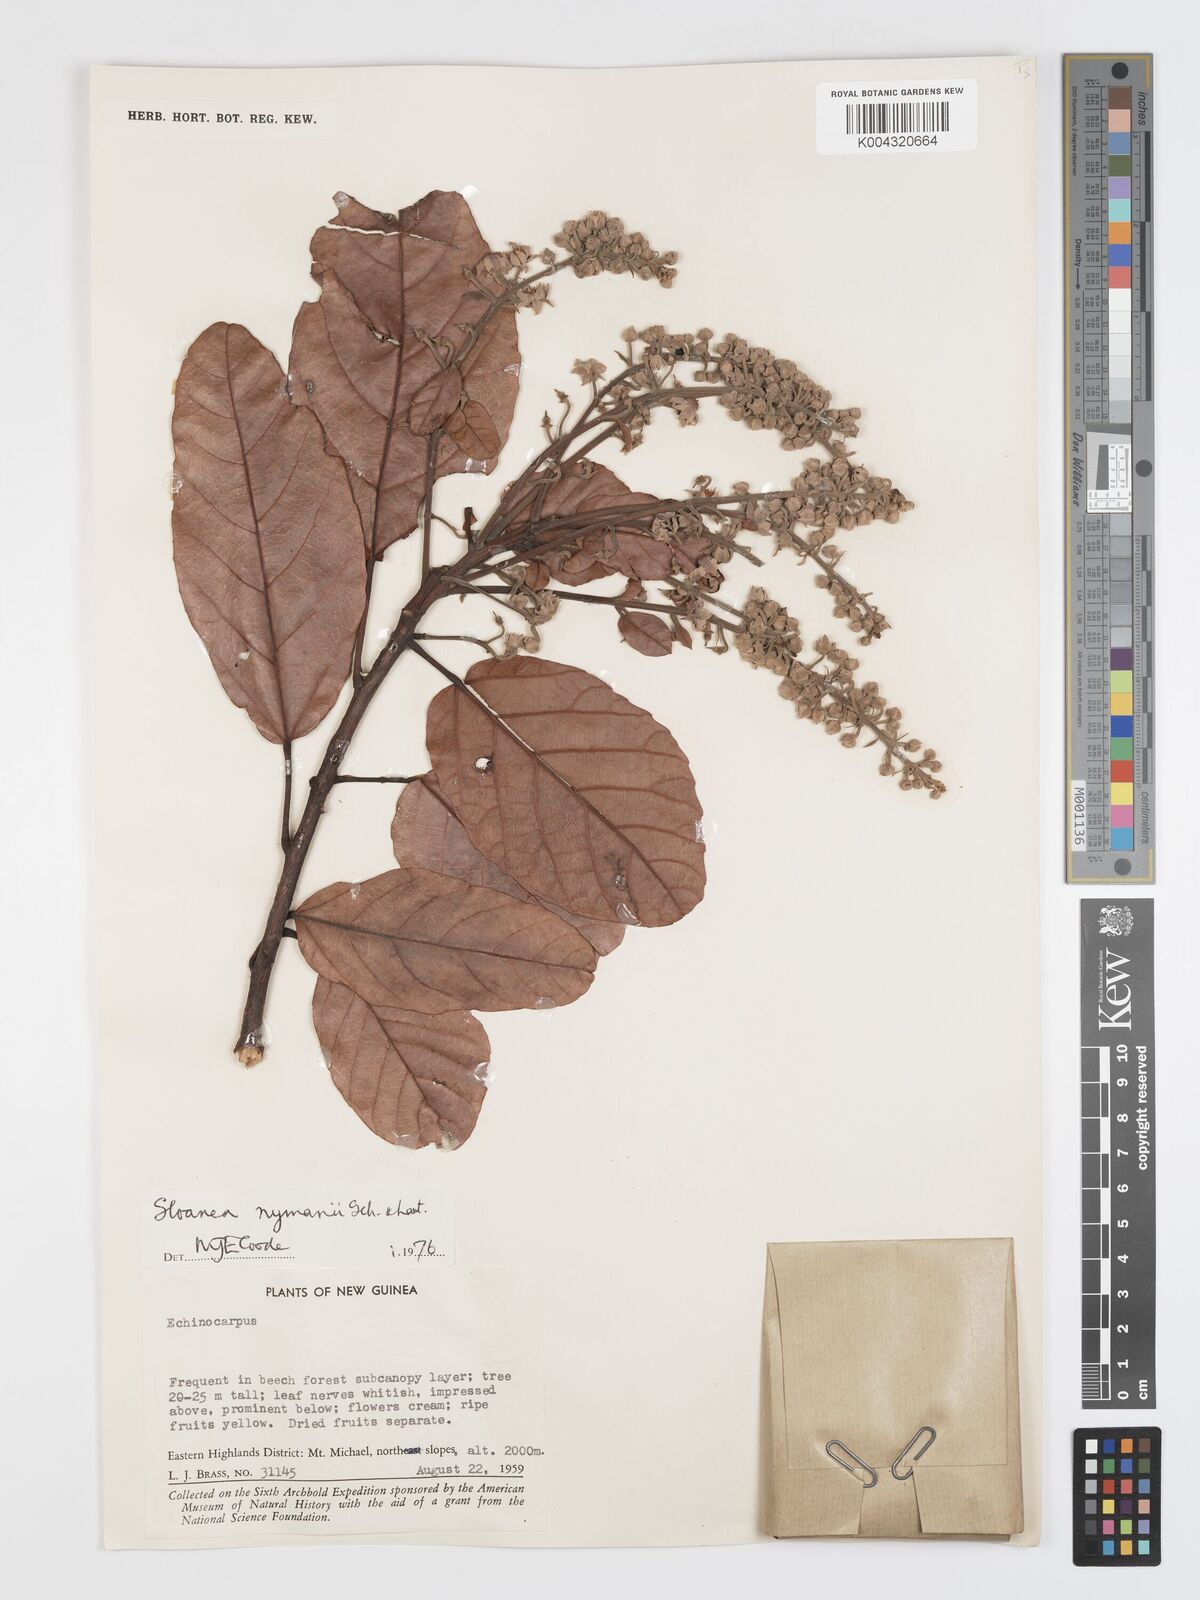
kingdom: Plantae
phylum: Tracheophyta
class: Magnoliopsida
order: Oxalidales
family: Elaeocarpaceae
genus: Sloanea
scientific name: Sloanea nymanii
